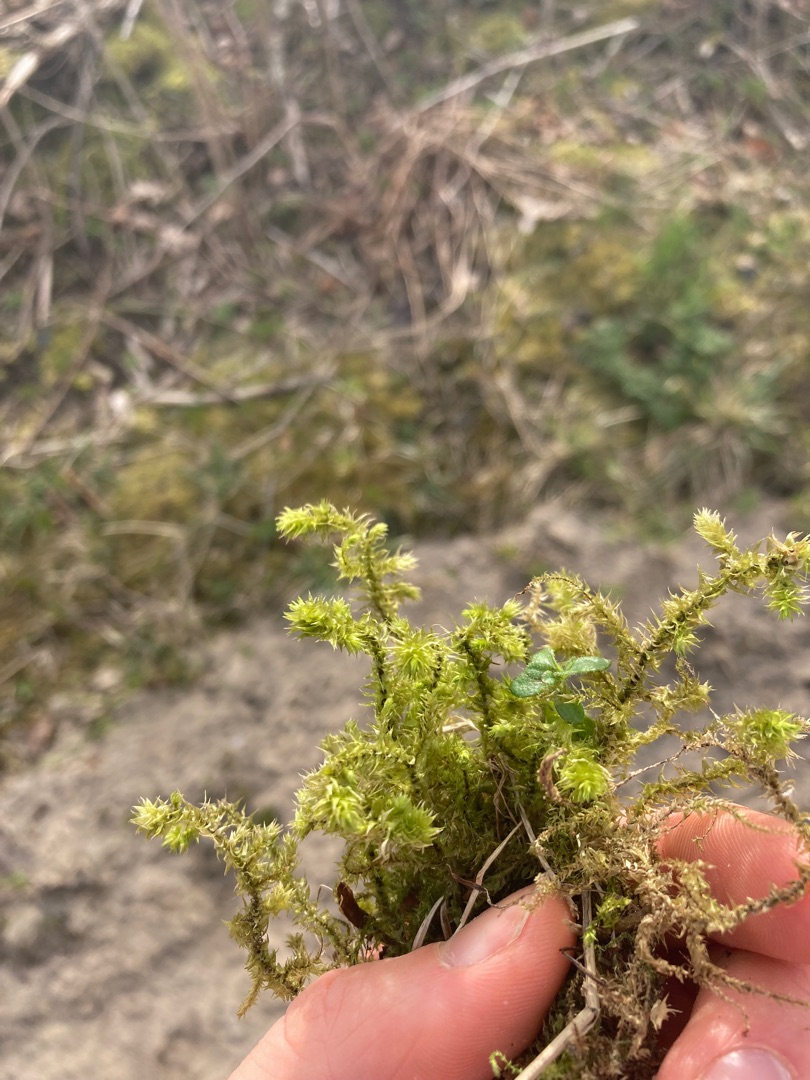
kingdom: Plantae
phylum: Bryophyta
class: Bryopsida
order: Hypnales
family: Hylocomiaceae
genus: Hylocomiadelphus
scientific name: Hylocomiadelphus triquetrus
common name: Stor kransemos
